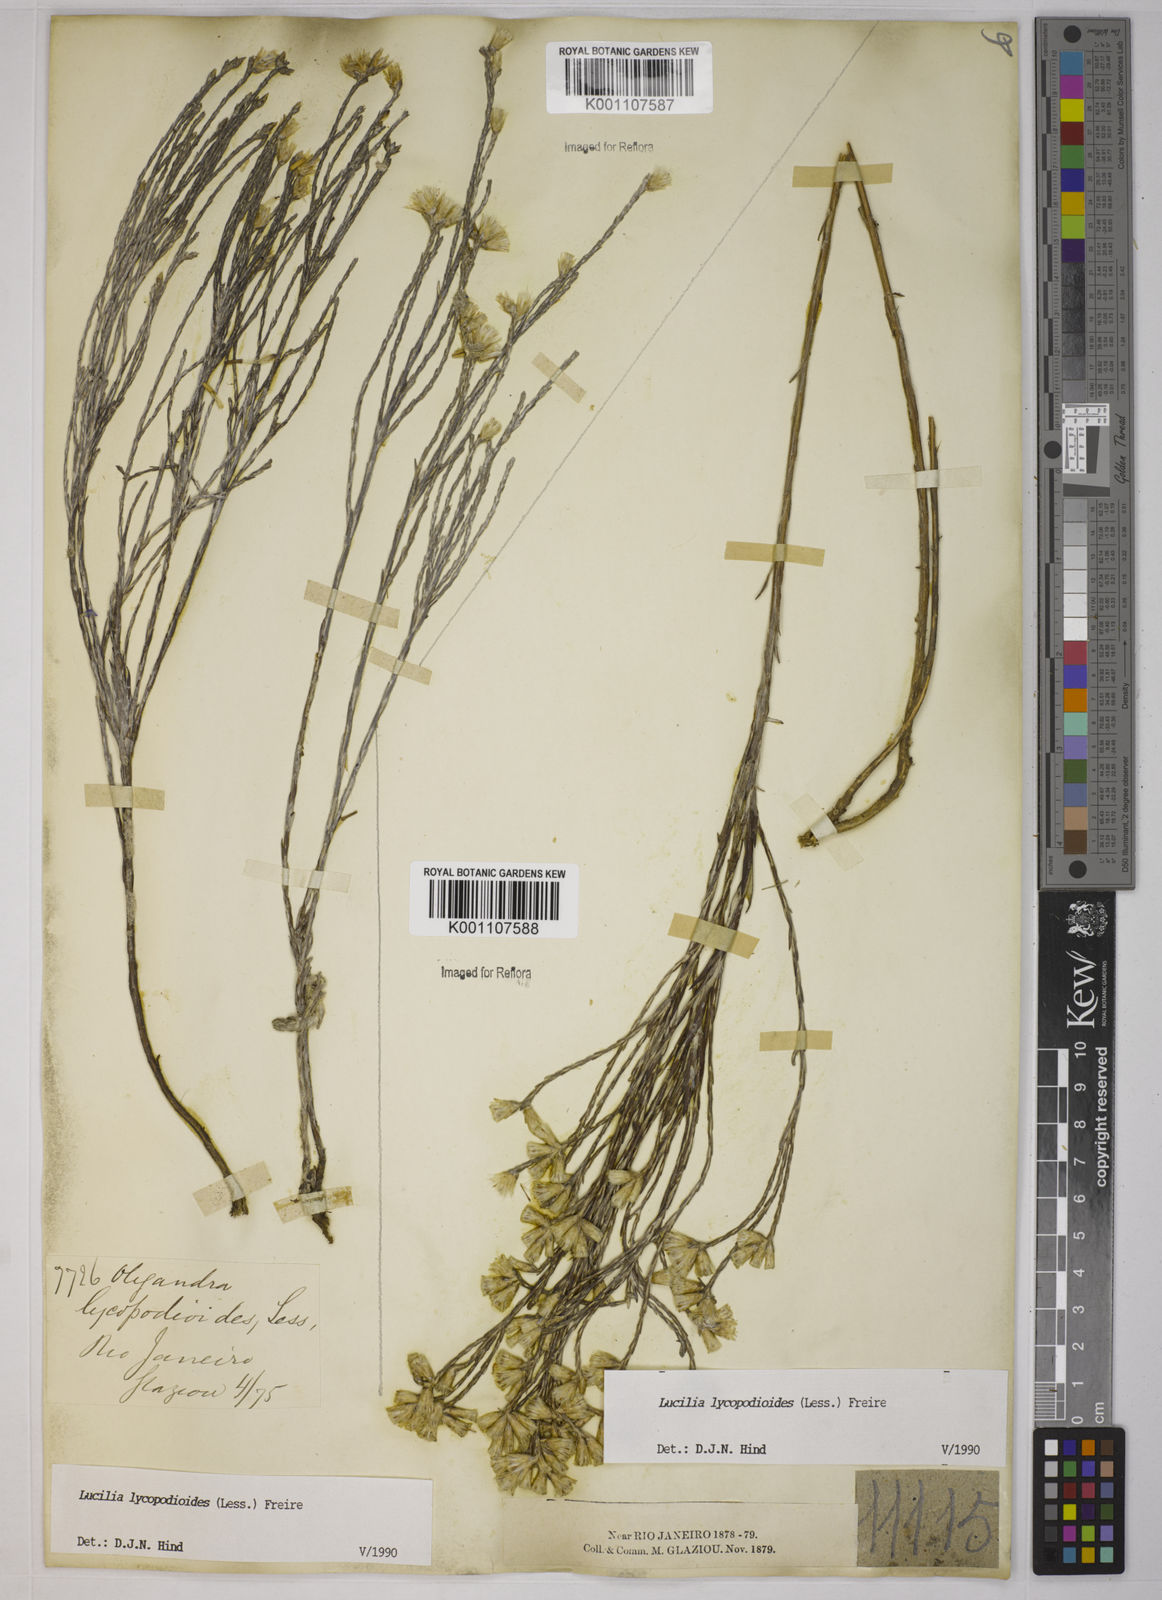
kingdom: Plantae
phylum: Tracheophyta
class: Magnoliopsida
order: Asterales
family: Asteraceae
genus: Lucilia
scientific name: Lucilia lycopodioides
